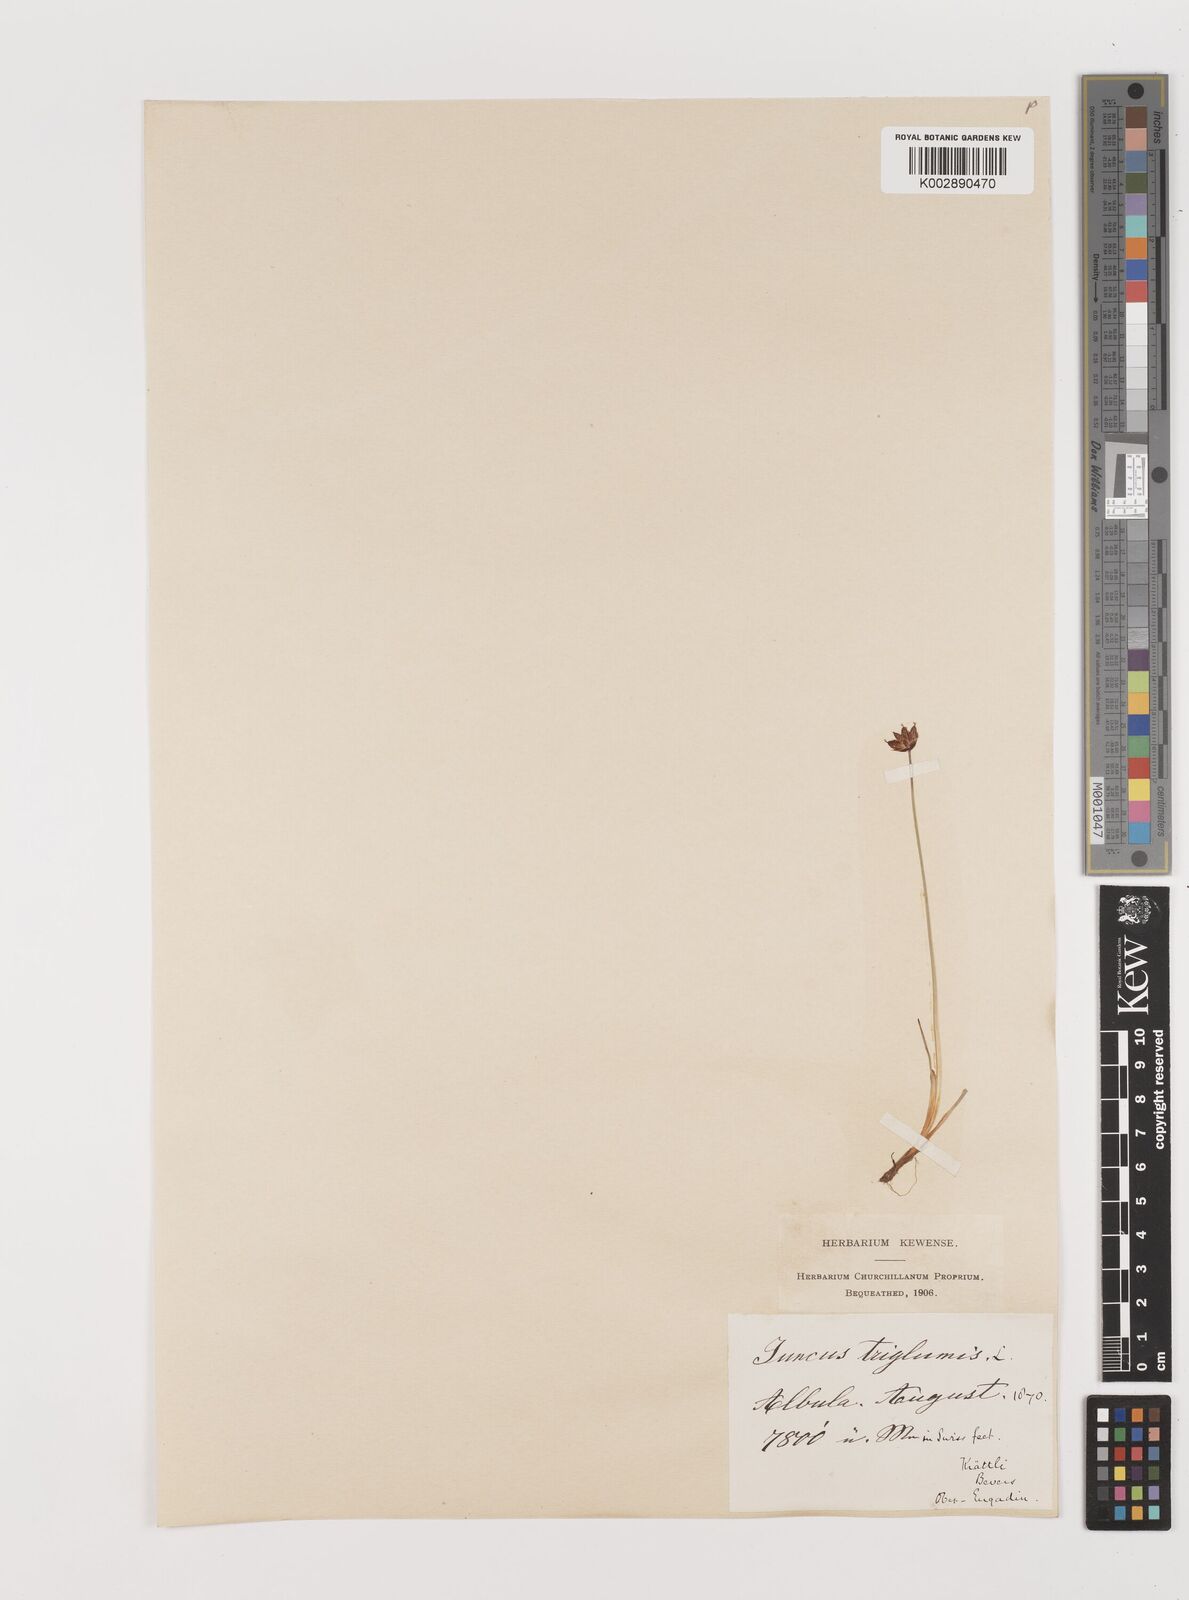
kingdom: Plantae
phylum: Tracheophyta
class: Liliopsida
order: Poales
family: Juncaceae
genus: Juncus
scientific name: Juncus triglumis
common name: Three-flowered rush
